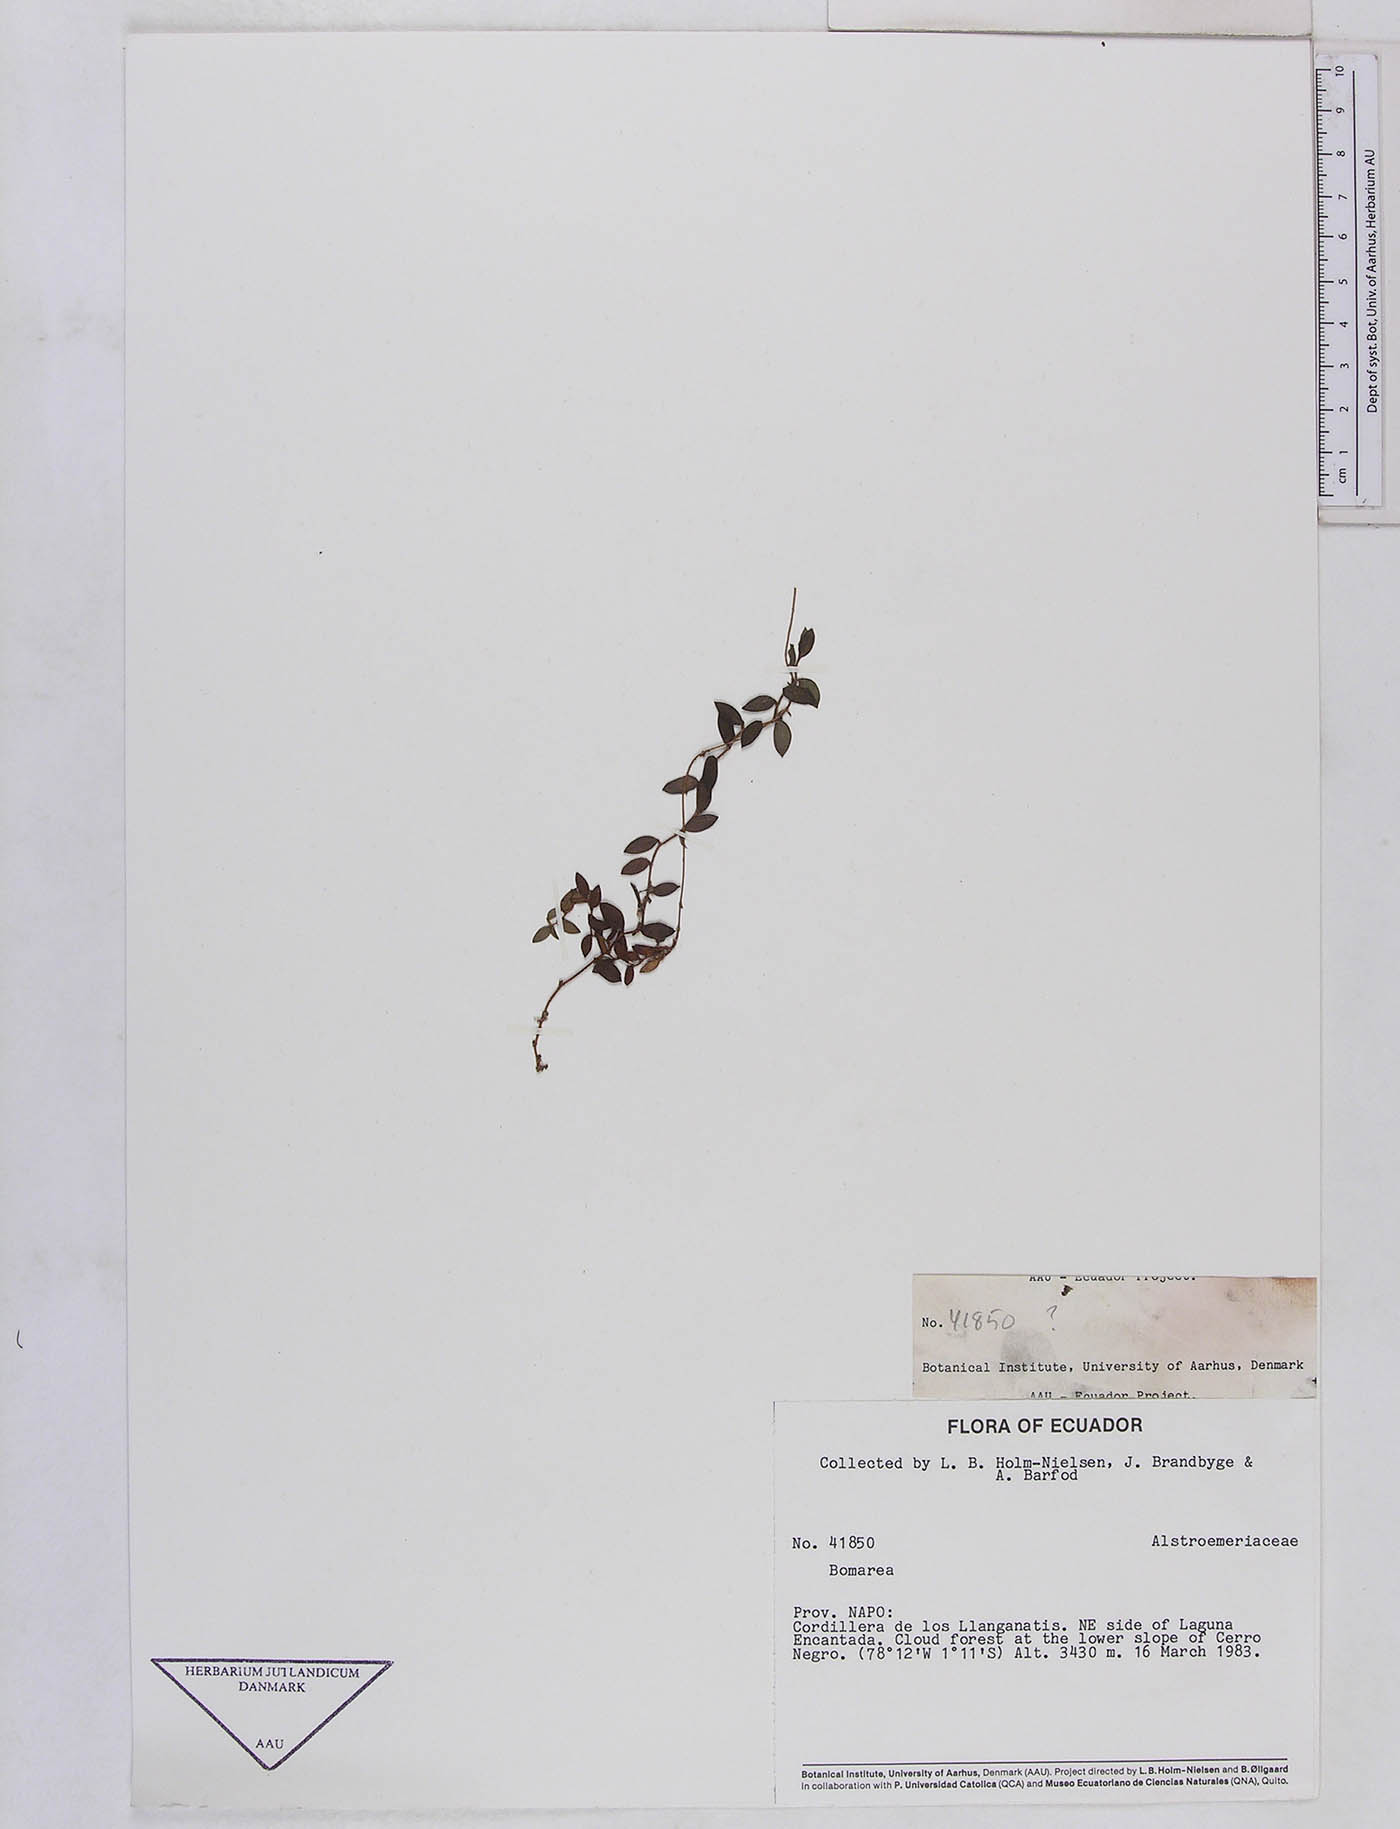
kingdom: Plantae
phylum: Tracheophyta
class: Liliopsida
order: Liliales
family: Alstroemeriaceae
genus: Bomarea
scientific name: Bomarea
